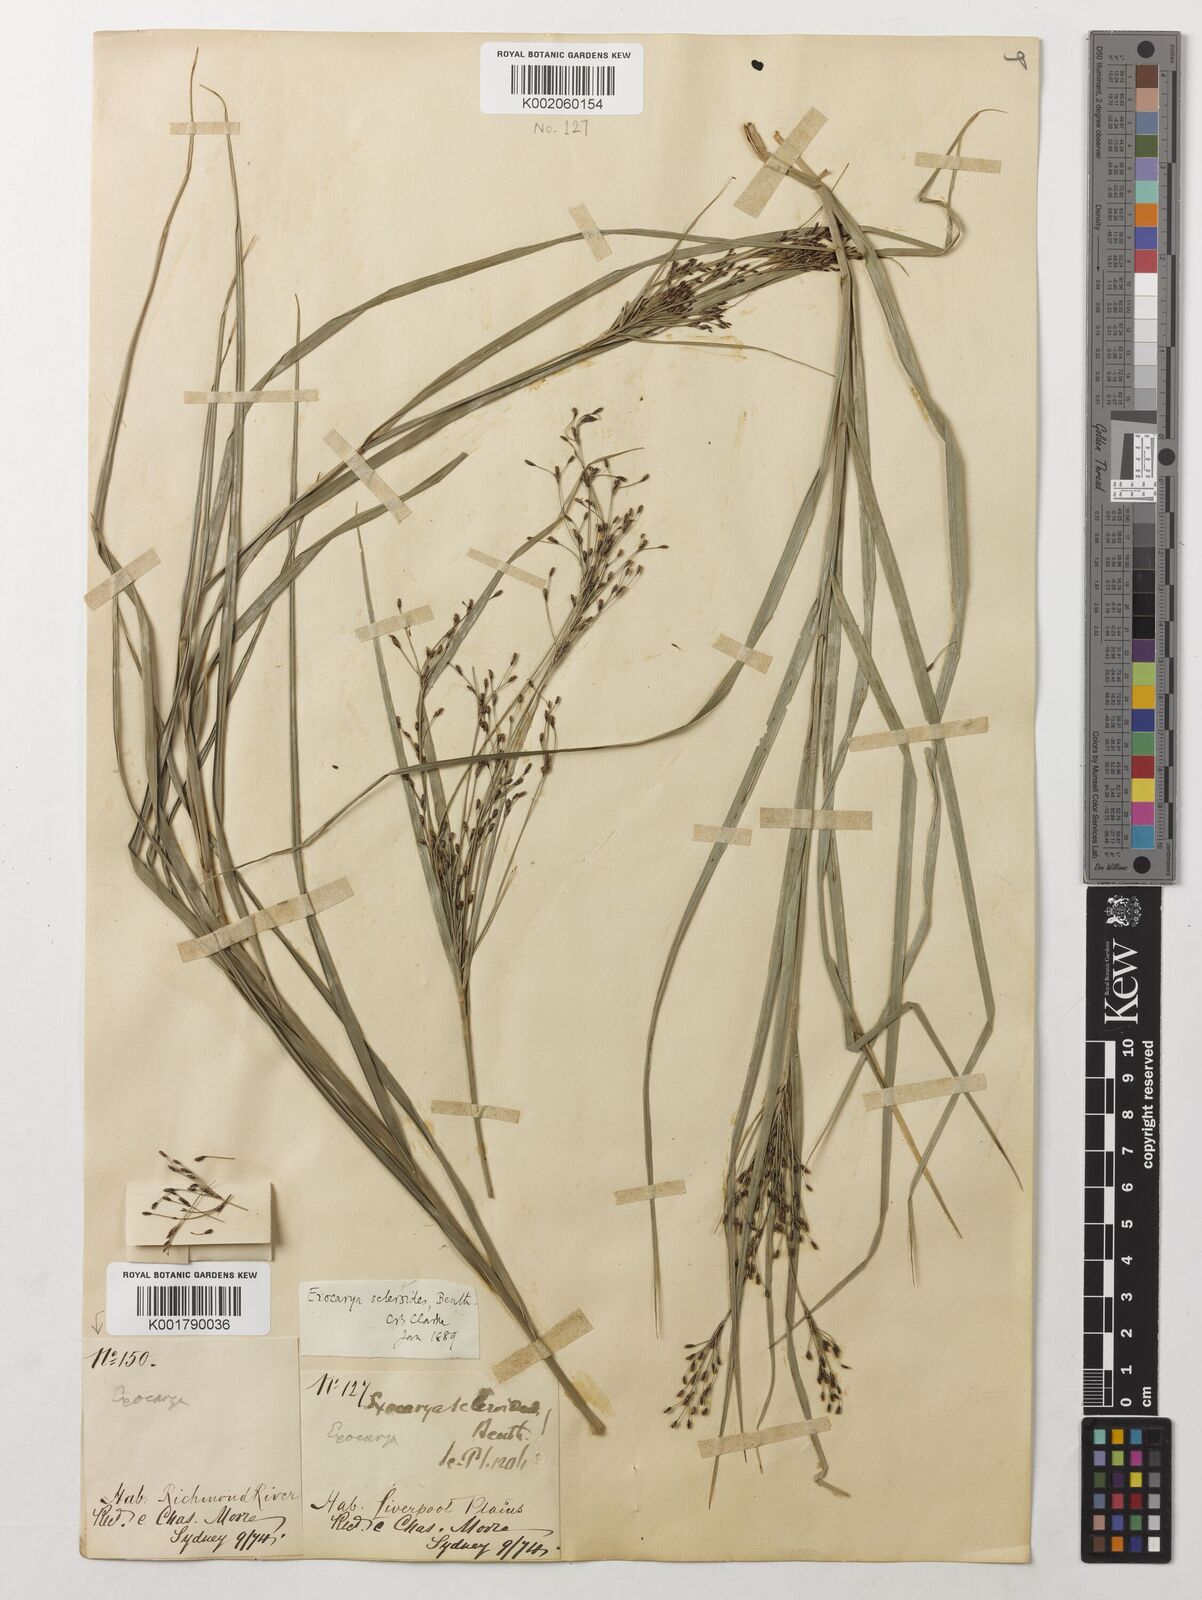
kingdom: Plantae
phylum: Tracheophyta
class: Liliopsida
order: Poales
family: Cyperaceae
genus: Exocarya
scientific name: Exocarya sclerioides
